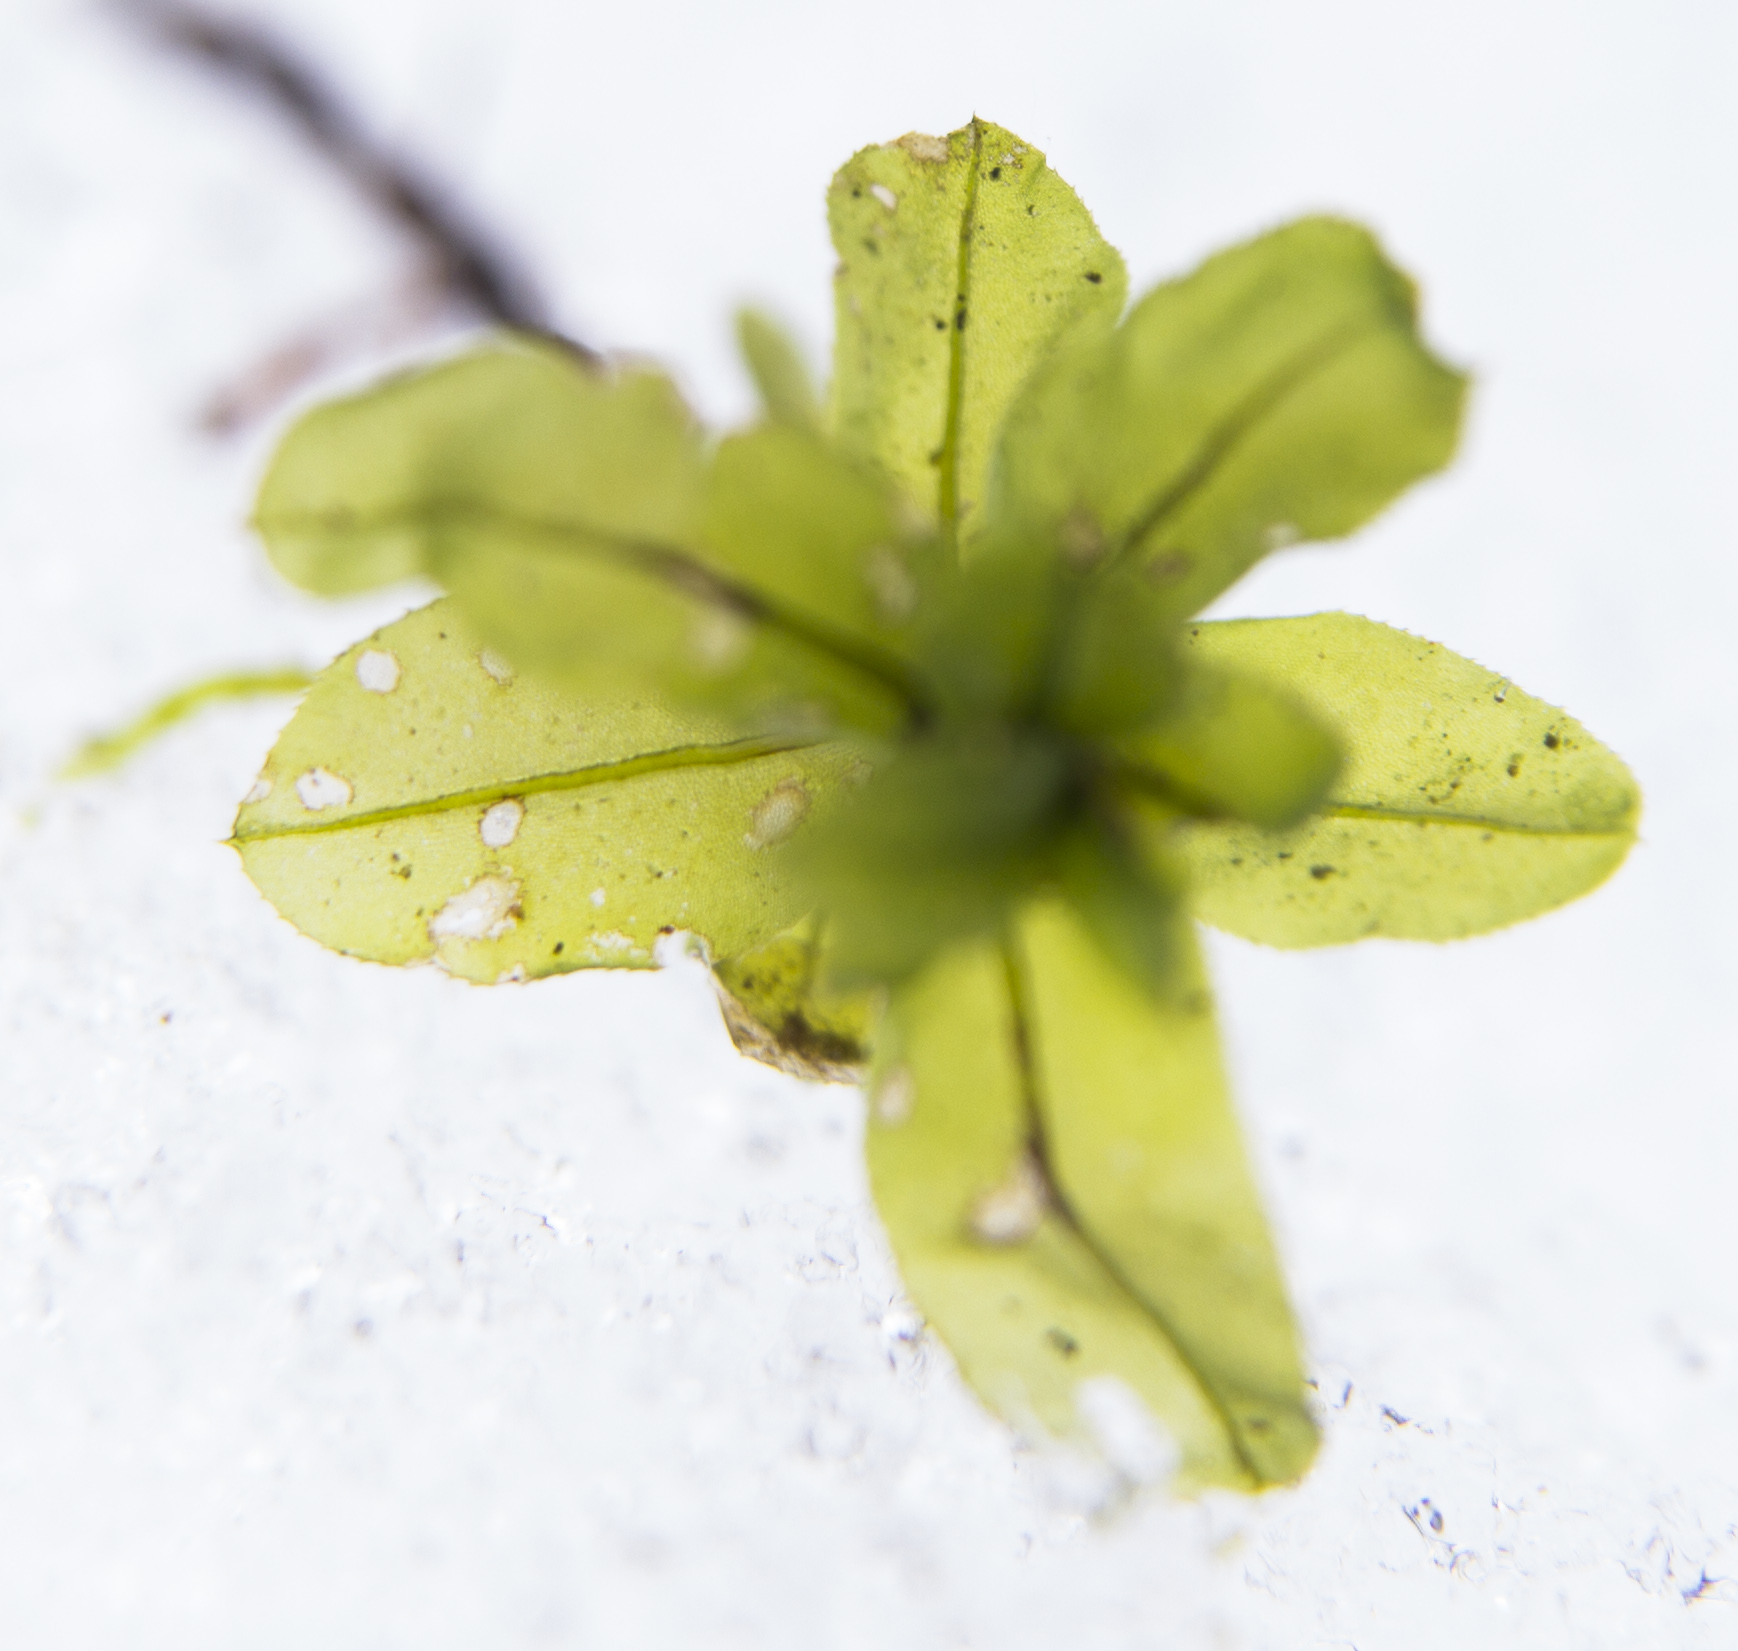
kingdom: Plantae
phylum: Bryophyta
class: Bryopsida
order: Bryales
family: Mniaceae
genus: Plagiomnium
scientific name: Plagiomnium medium
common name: Alpine leafy moss
